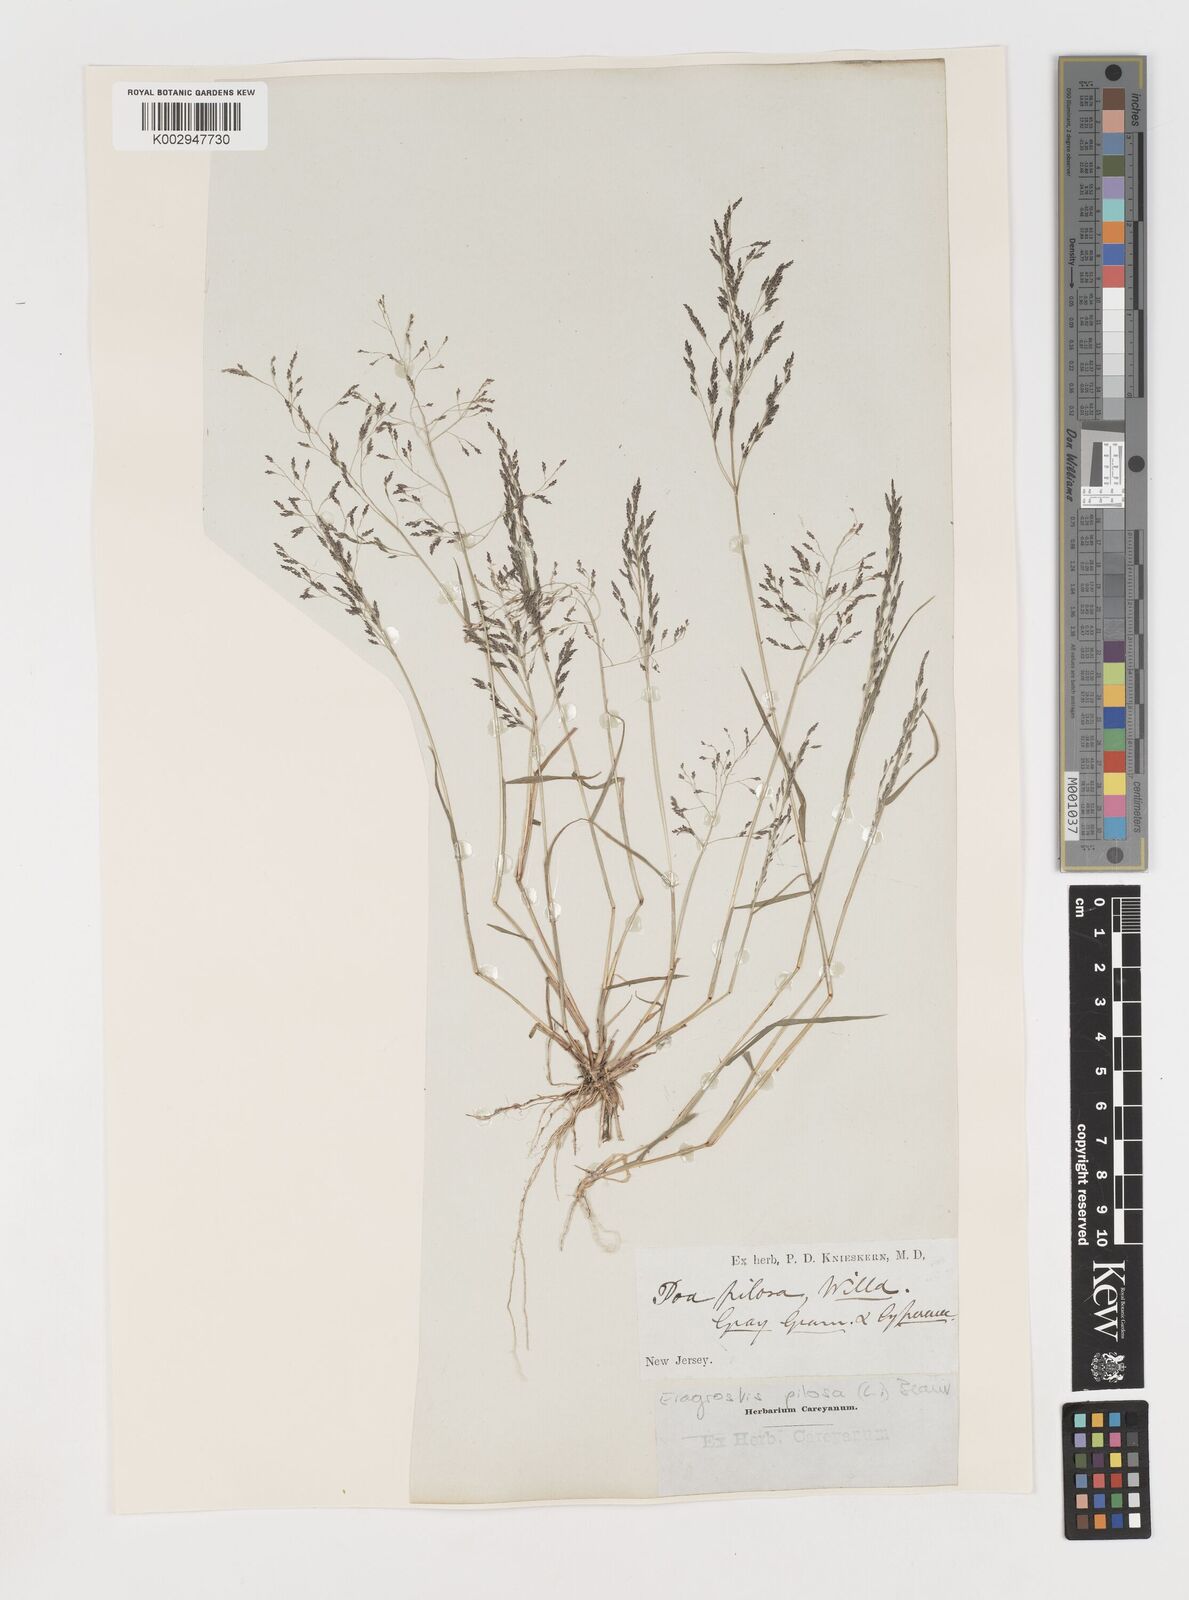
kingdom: Plantae
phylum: Tracheophyta
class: Liliopsida
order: Poales
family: Poaceae
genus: Eragrostis
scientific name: Eragrostis pilosa
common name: Indian lovegrass
